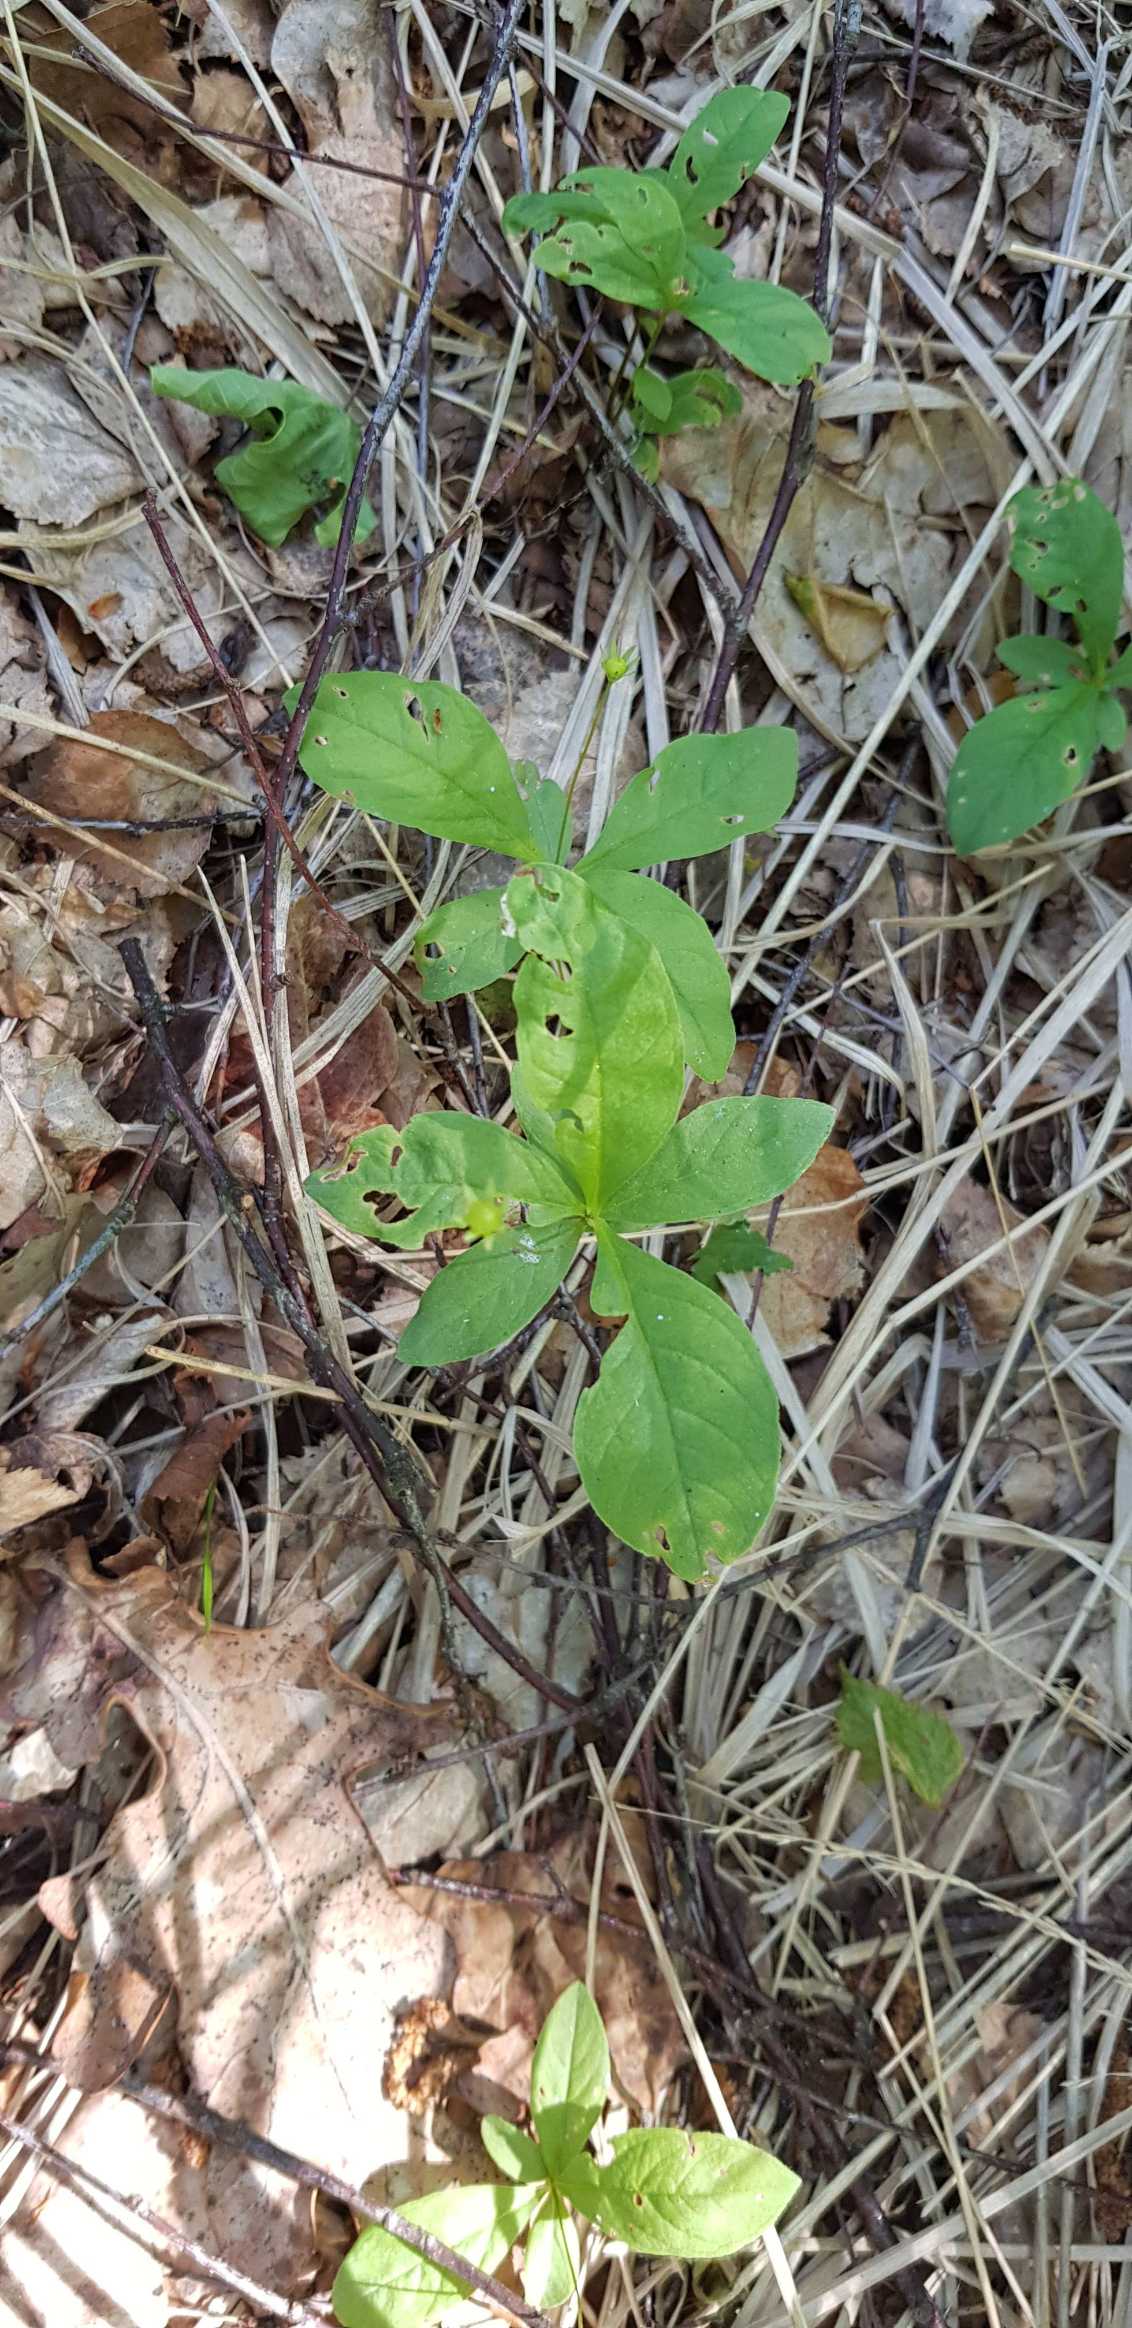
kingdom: Plantae
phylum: Tracheophyta
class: Magnoliopsida
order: Ericales
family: Primulaceae
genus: Lysimachia
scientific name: Lysimachia europaea
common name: Skovstjerne
